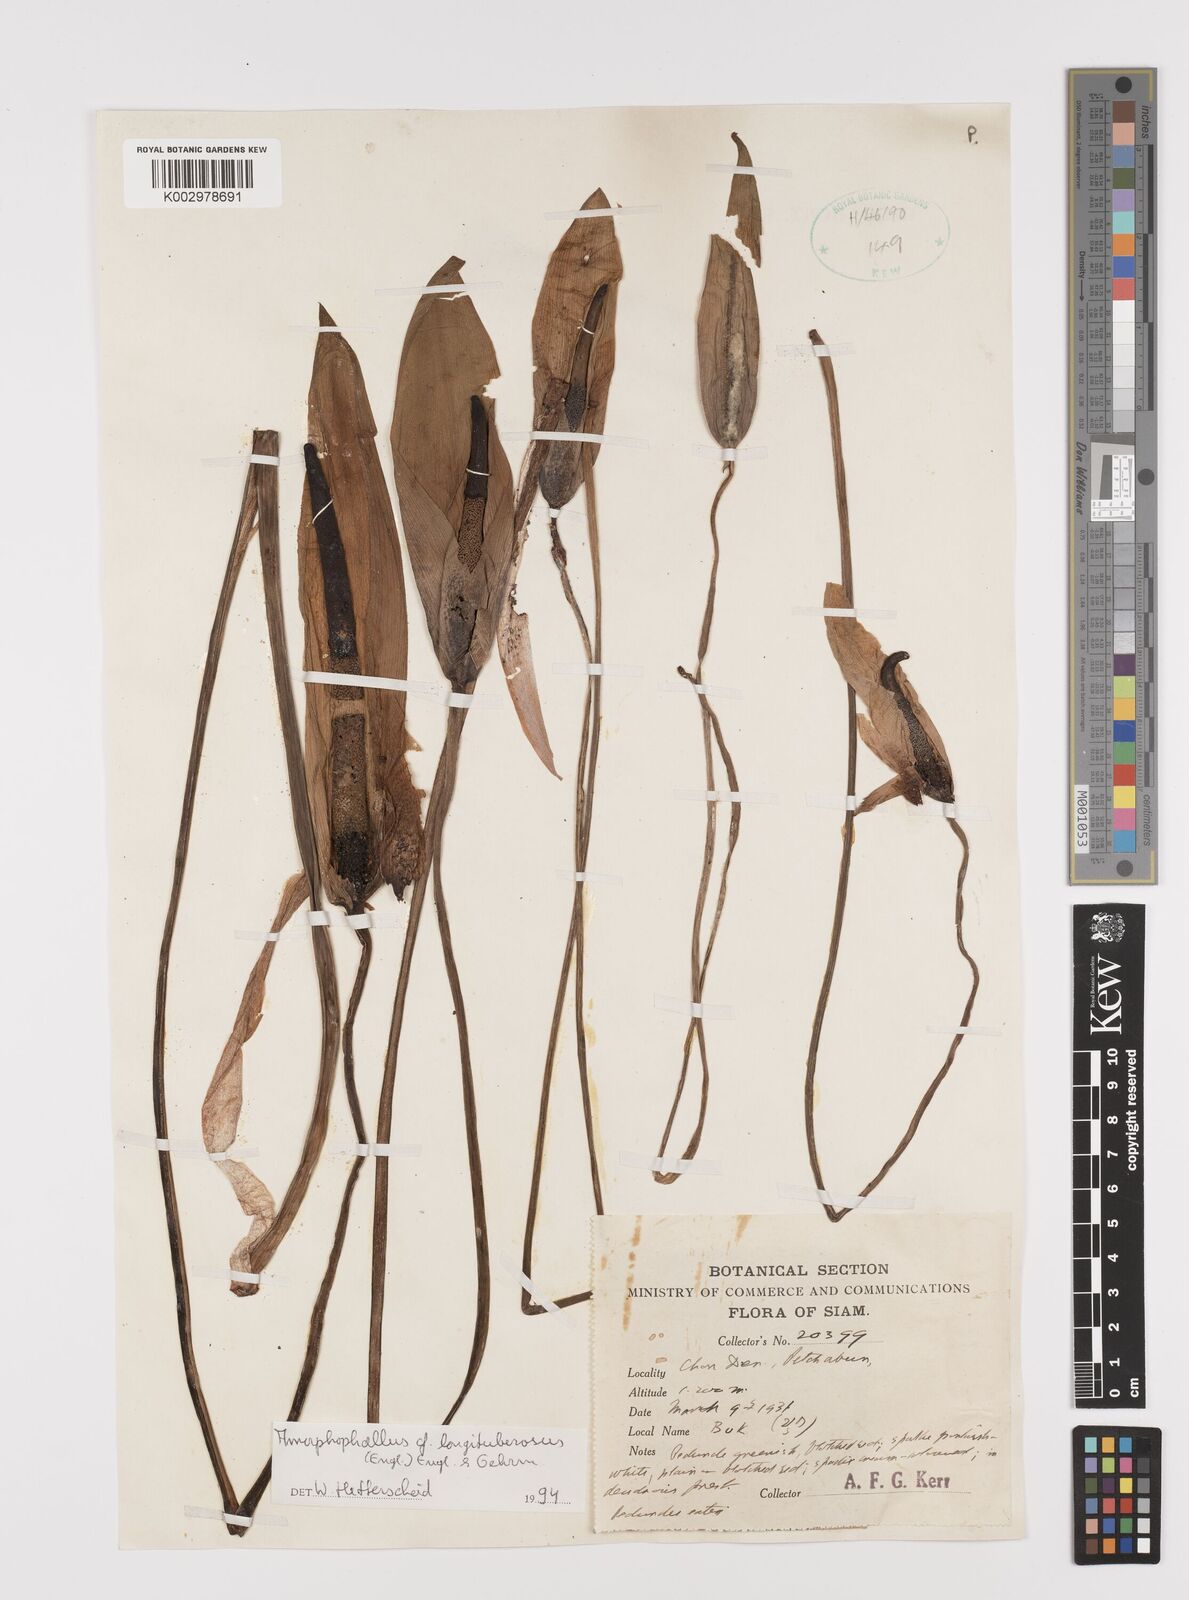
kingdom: Plantae
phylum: Tracheophyta
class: Liliopsida
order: Alismatales
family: Araceae
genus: Amorphophallus
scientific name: Amorphophallus longituberosus
